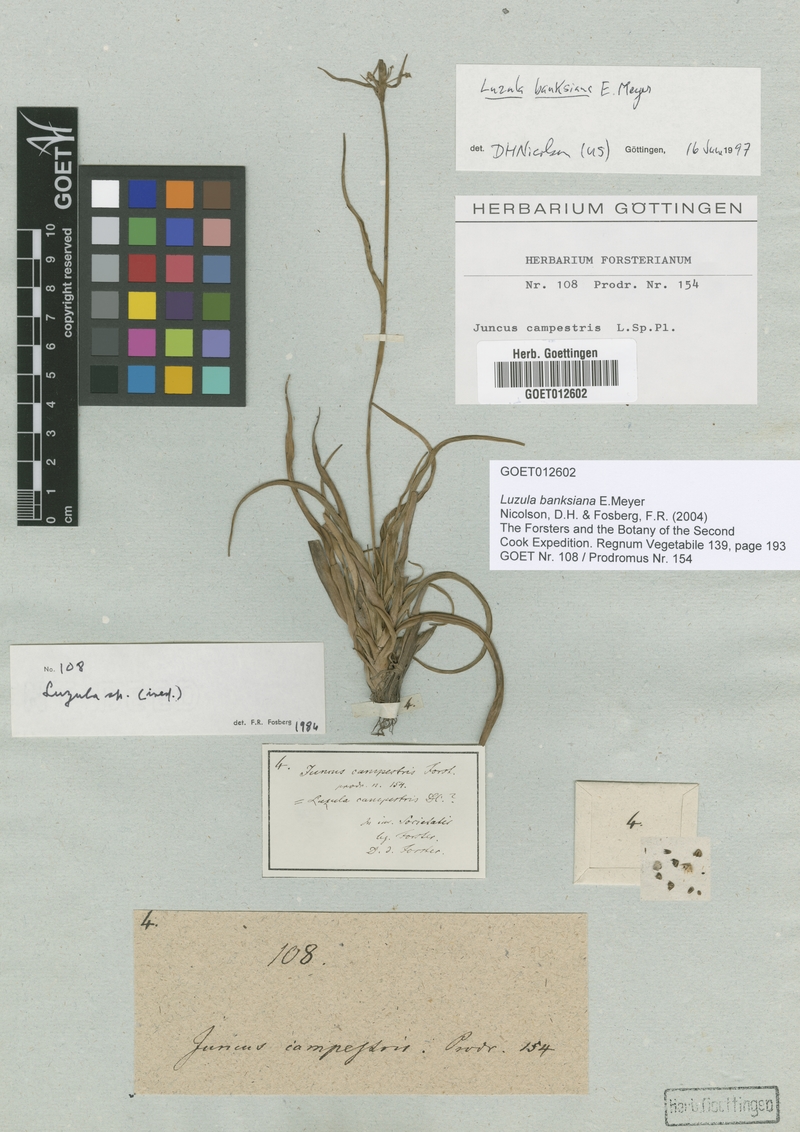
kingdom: Plantae
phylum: Tracheophyta
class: Liliopsida
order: Poales
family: Juncaceae
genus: Luzula
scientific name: Luzula banksiana
